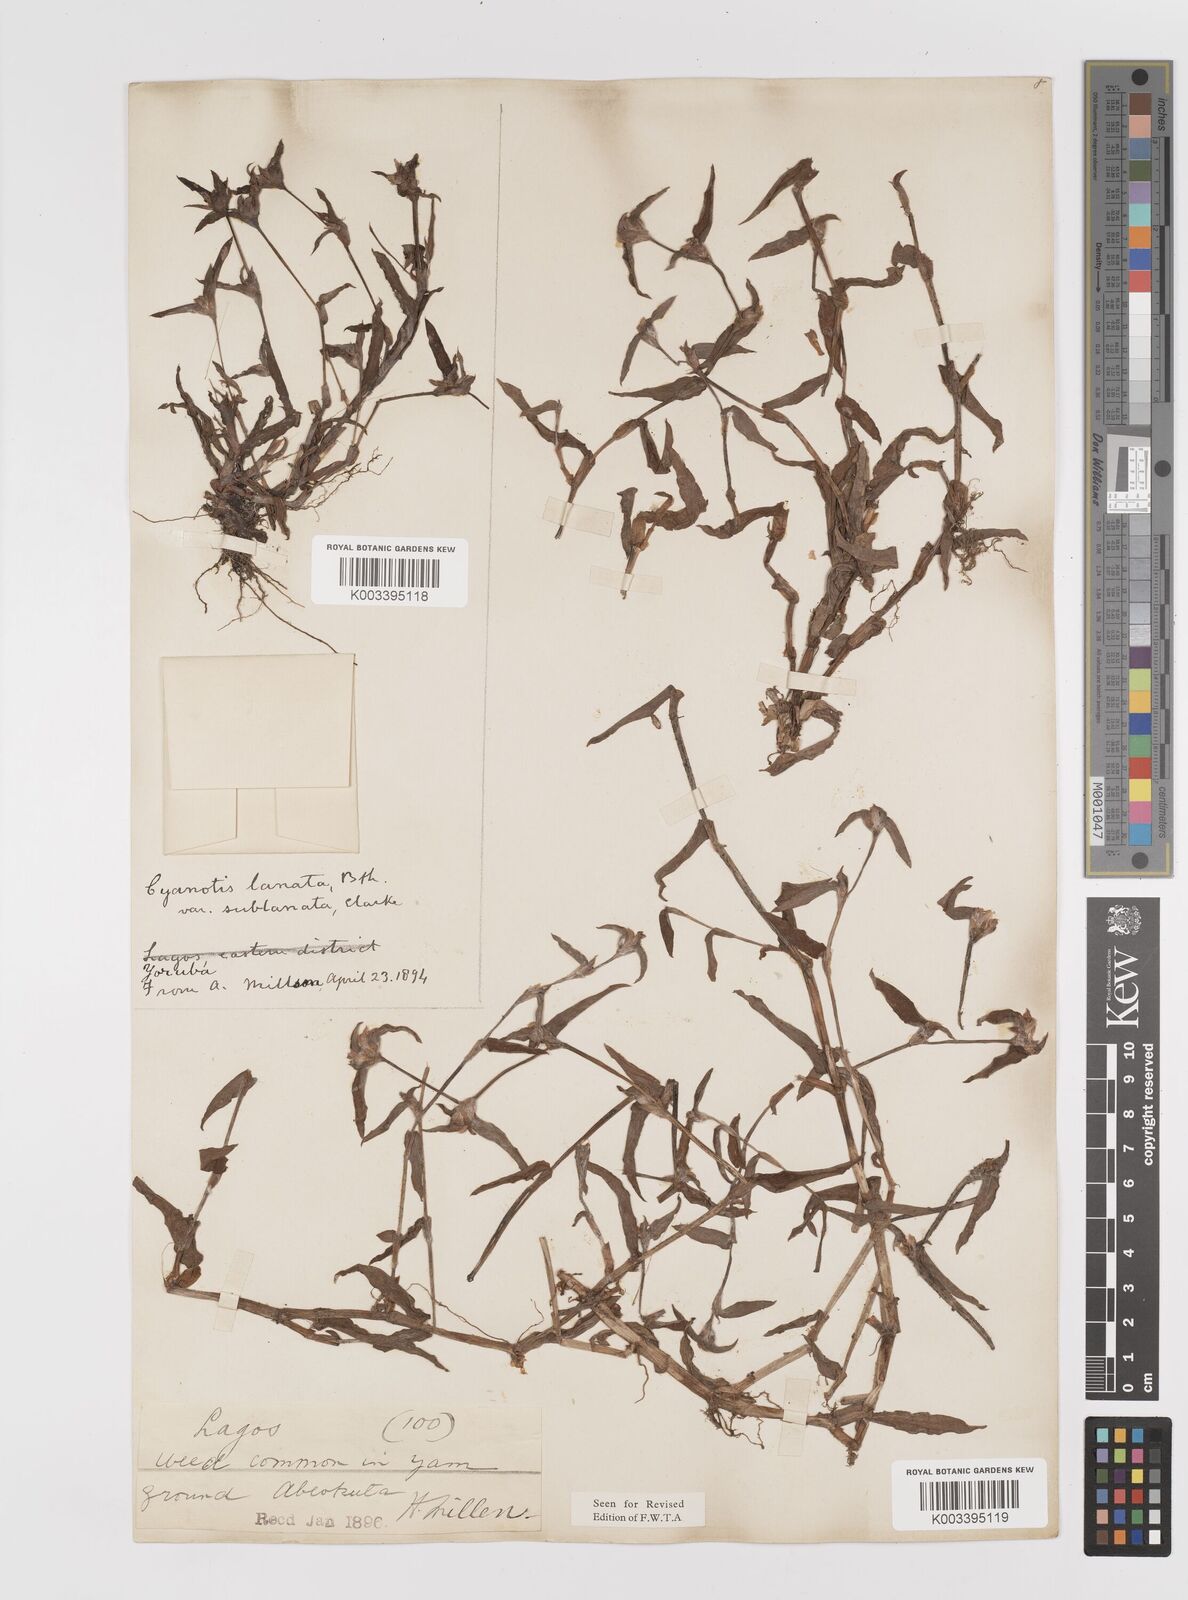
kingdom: Plantae
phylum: Tracheophyta
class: Liliopsida
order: Commelinales
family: Commelinaceae
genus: Cyanotis
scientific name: Cyanotis lanata
